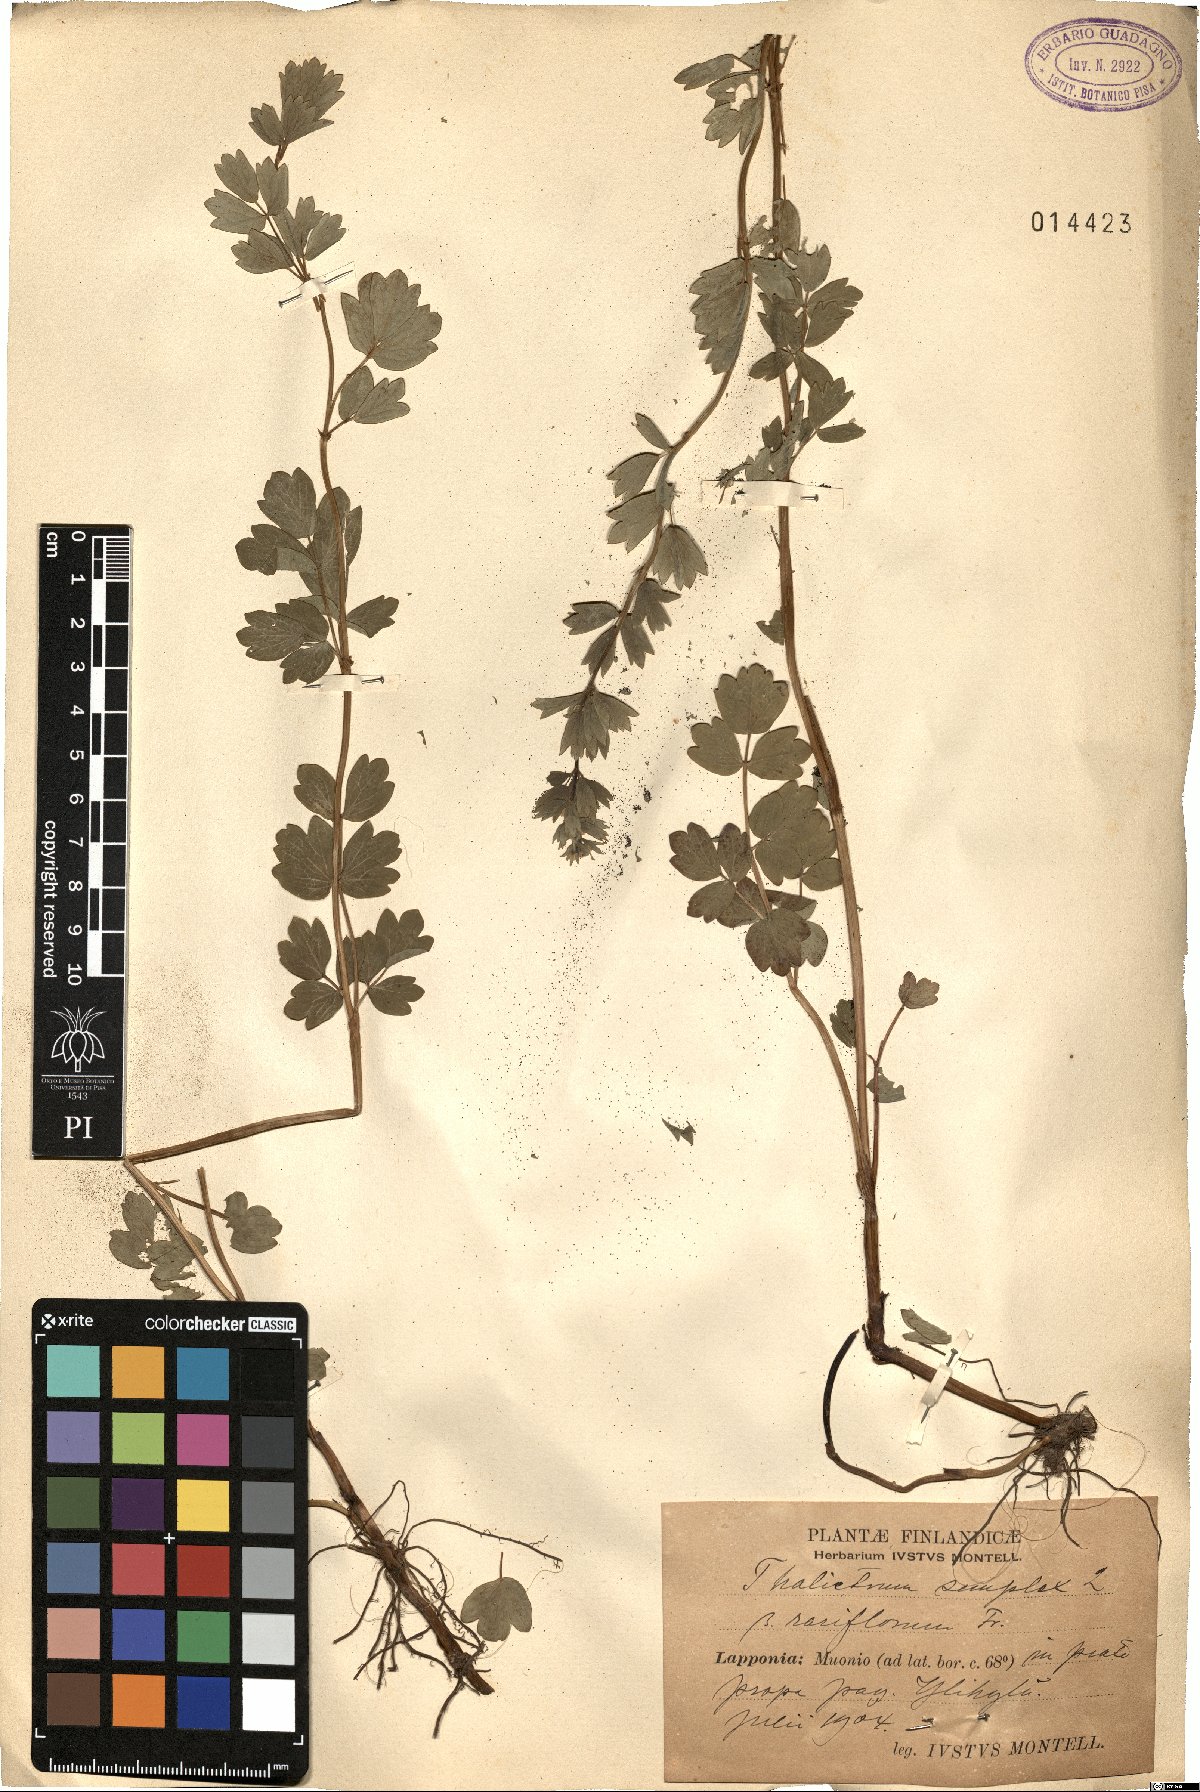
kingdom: Plantae
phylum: Tracheophyta
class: Magnoliopsida
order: Ranunculales
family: Ranunculaceae
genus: Thalictrum
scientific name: Thalictrum simplex
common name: Small meadow-rue
